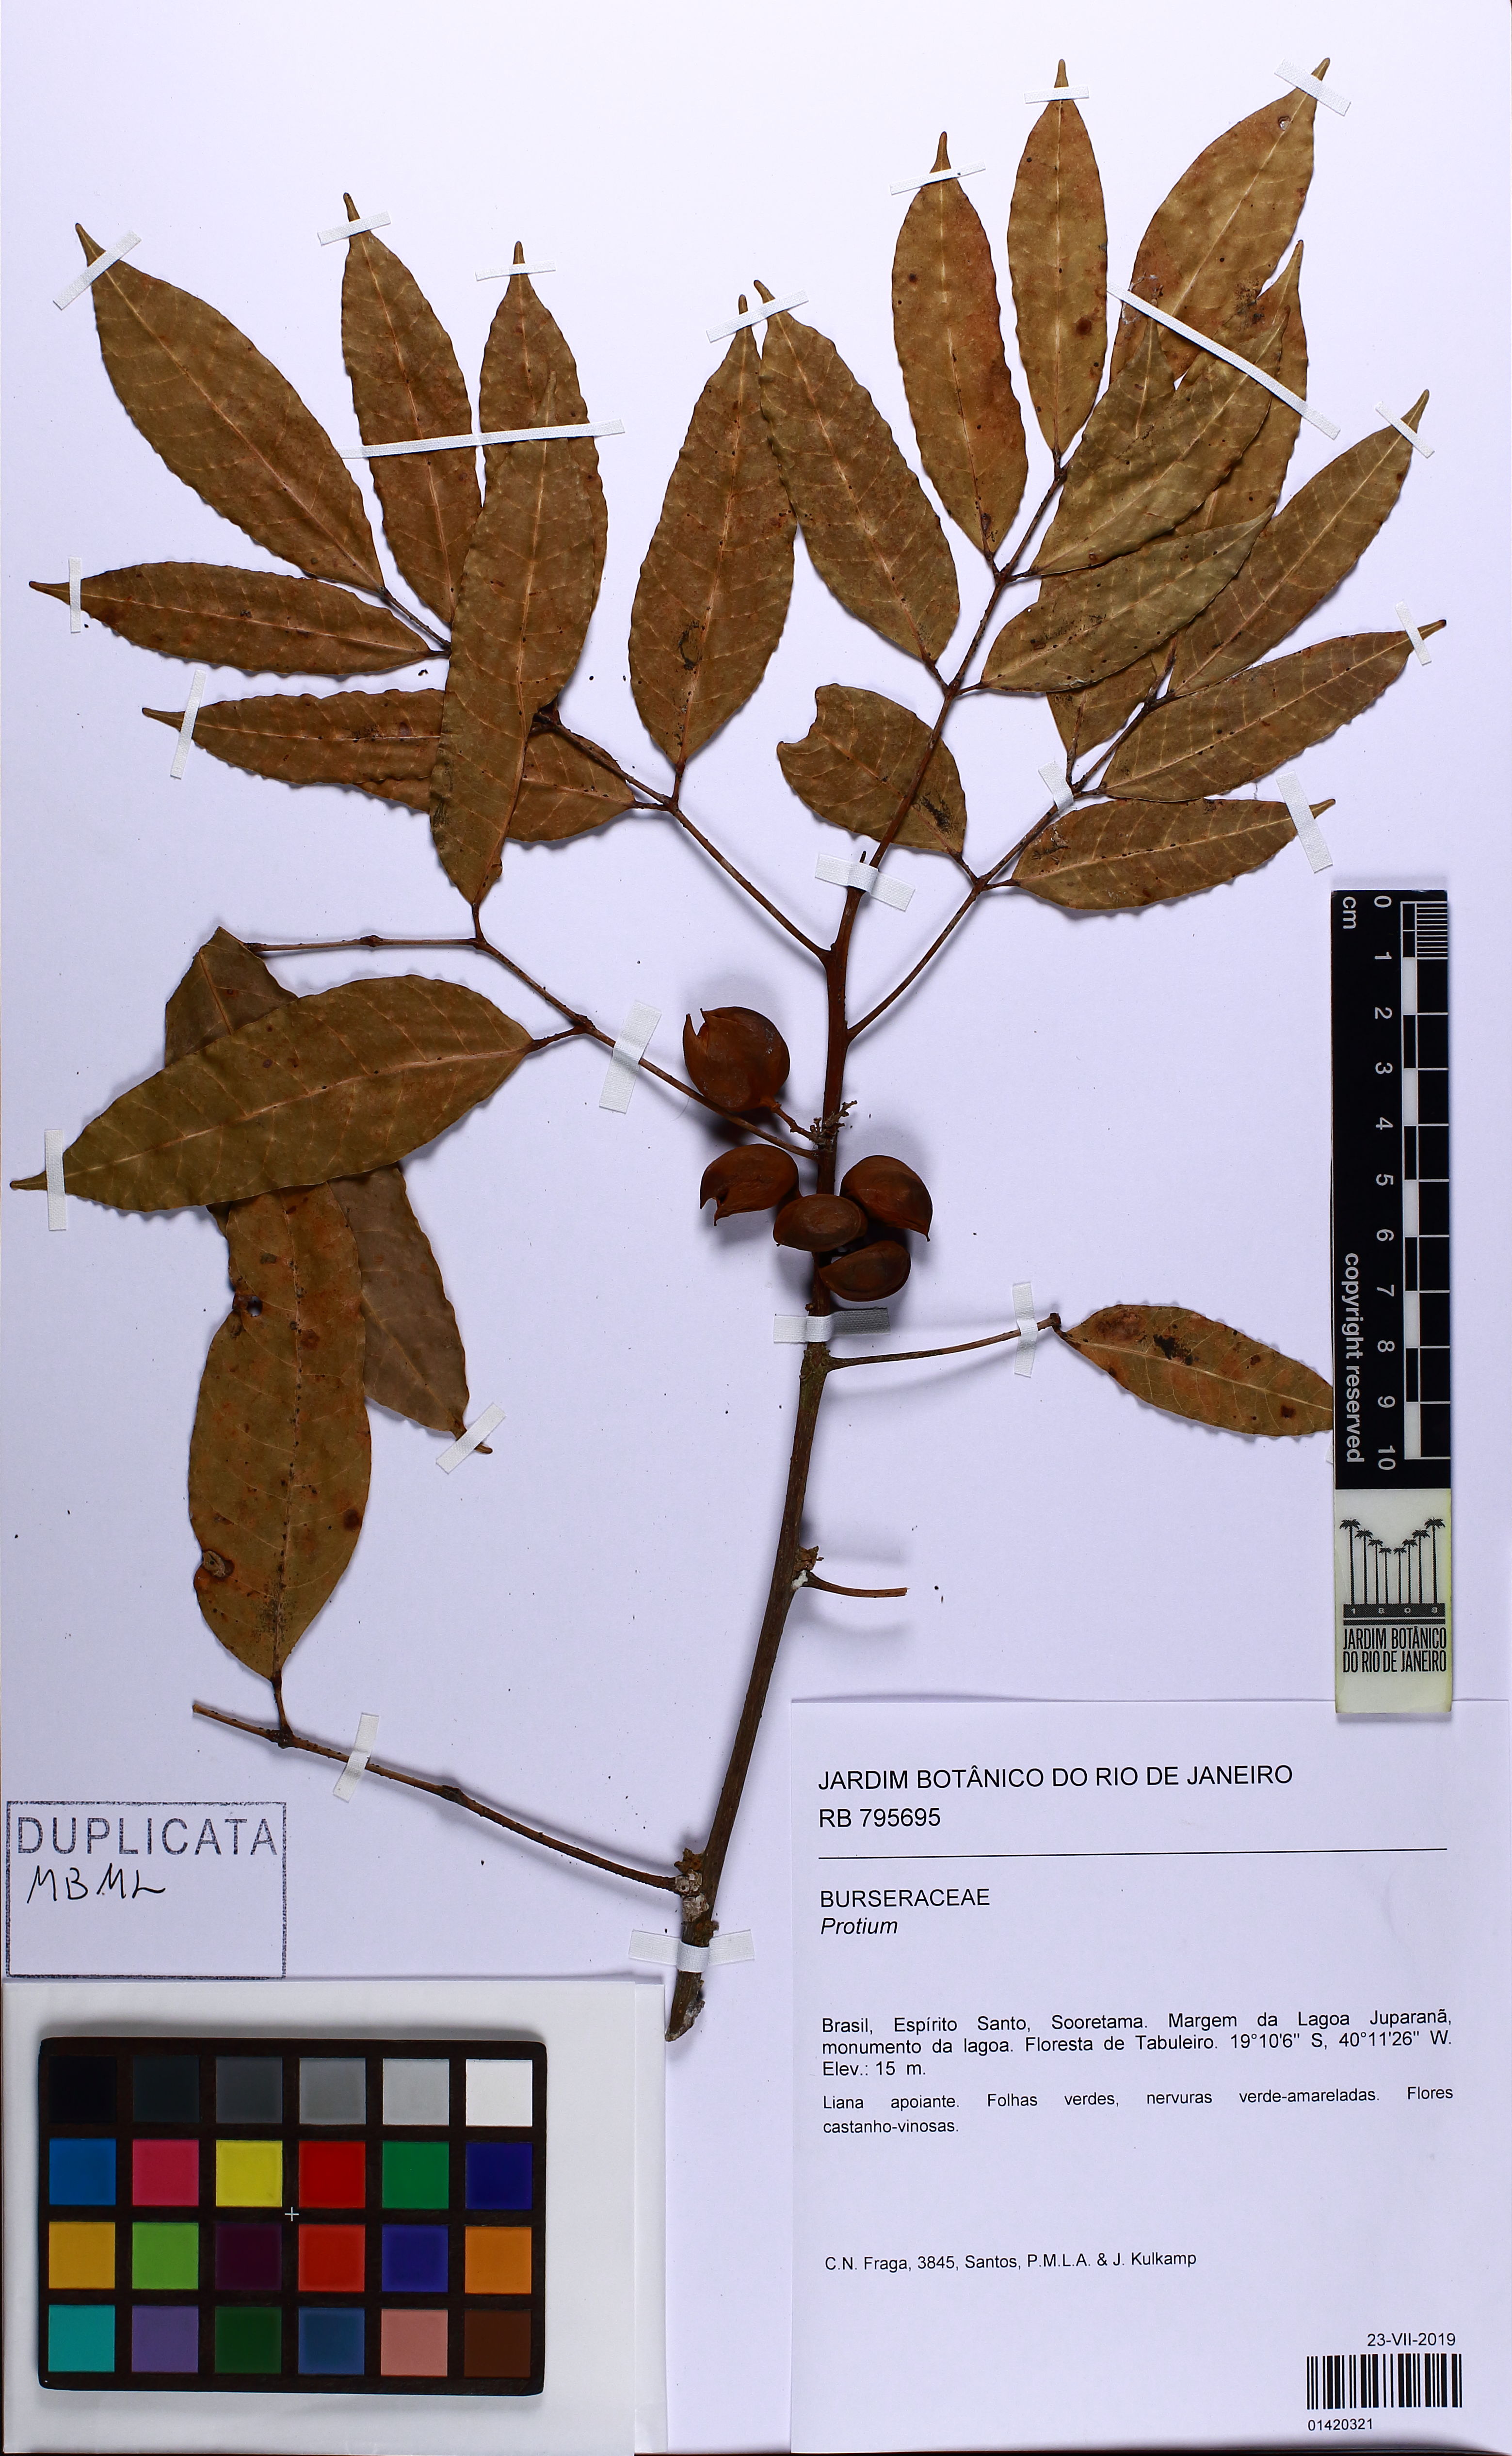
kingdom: Plantae
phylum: Tracheophyta
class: Magnoliopsida
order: Sapindales
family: Burseraceae
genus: Protium
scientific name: Protium heptaphyllum
